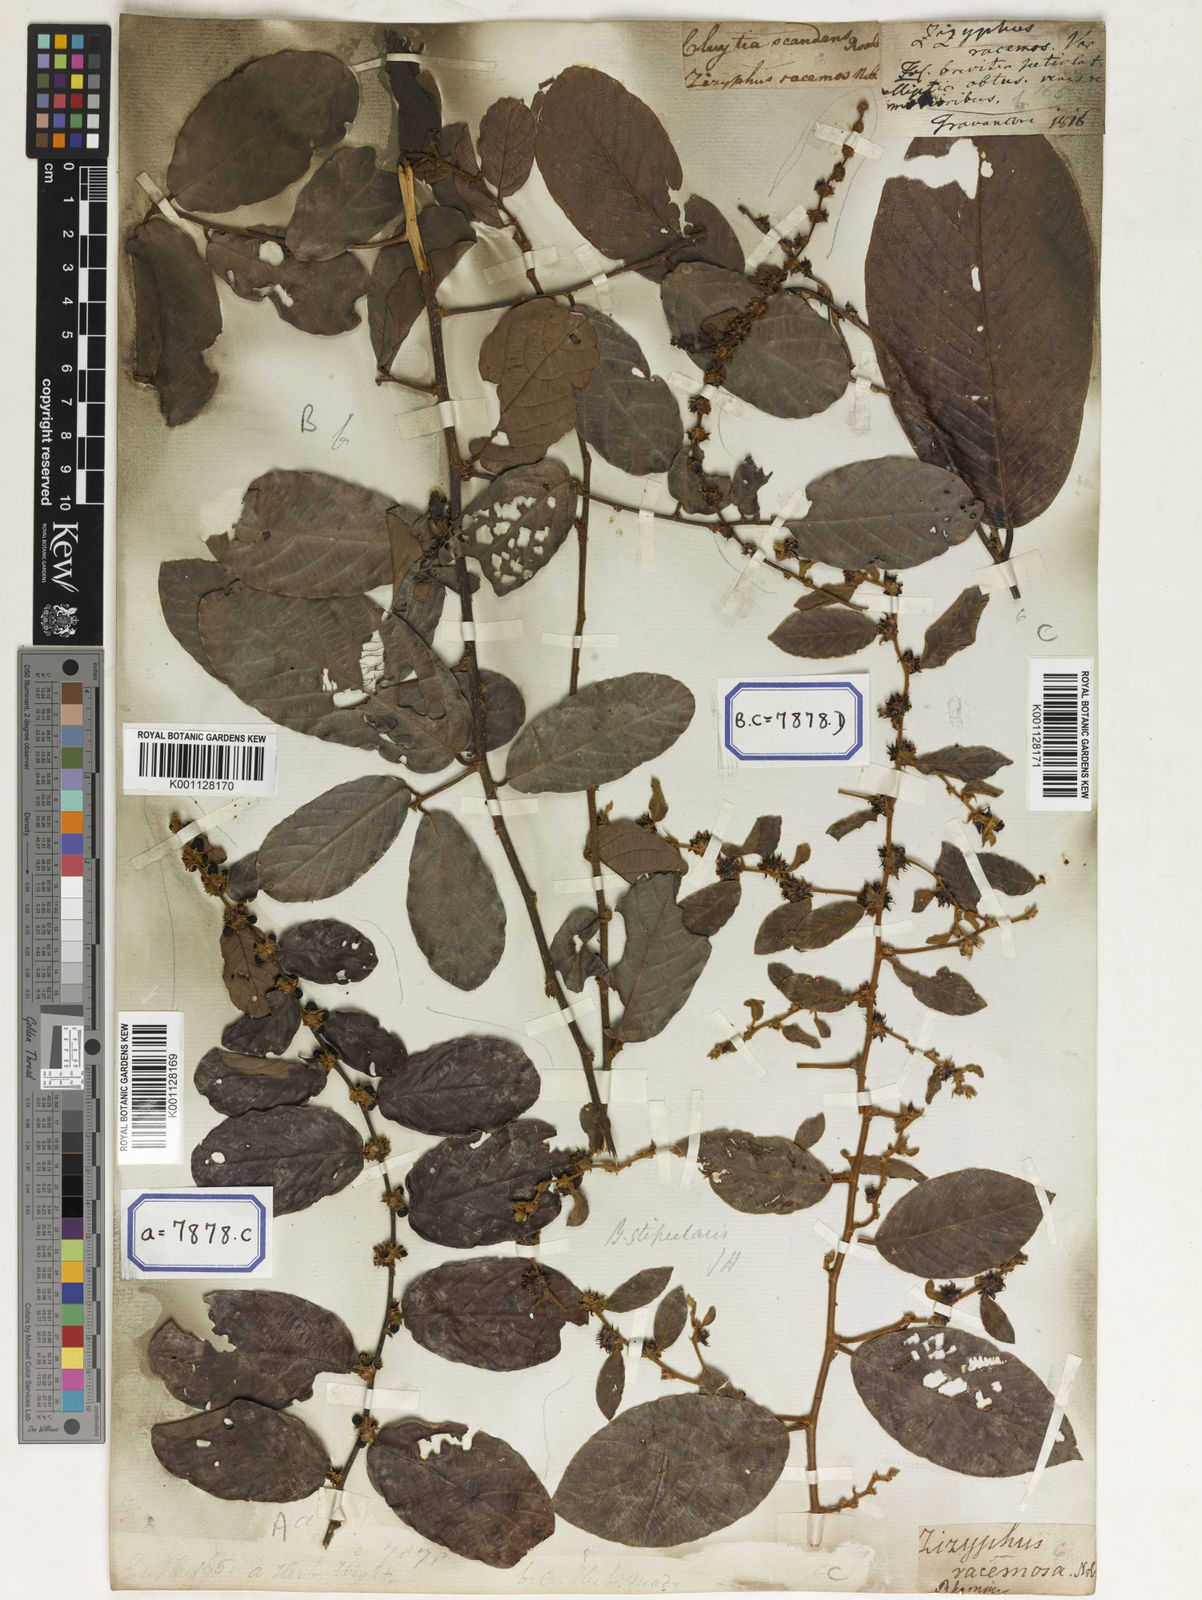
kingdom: Plantae
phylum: Tracheophyta
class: Magnoliopsida
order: Malpighiales
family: Phyllanthaceae
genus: Bridelia
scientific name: Bridelia
